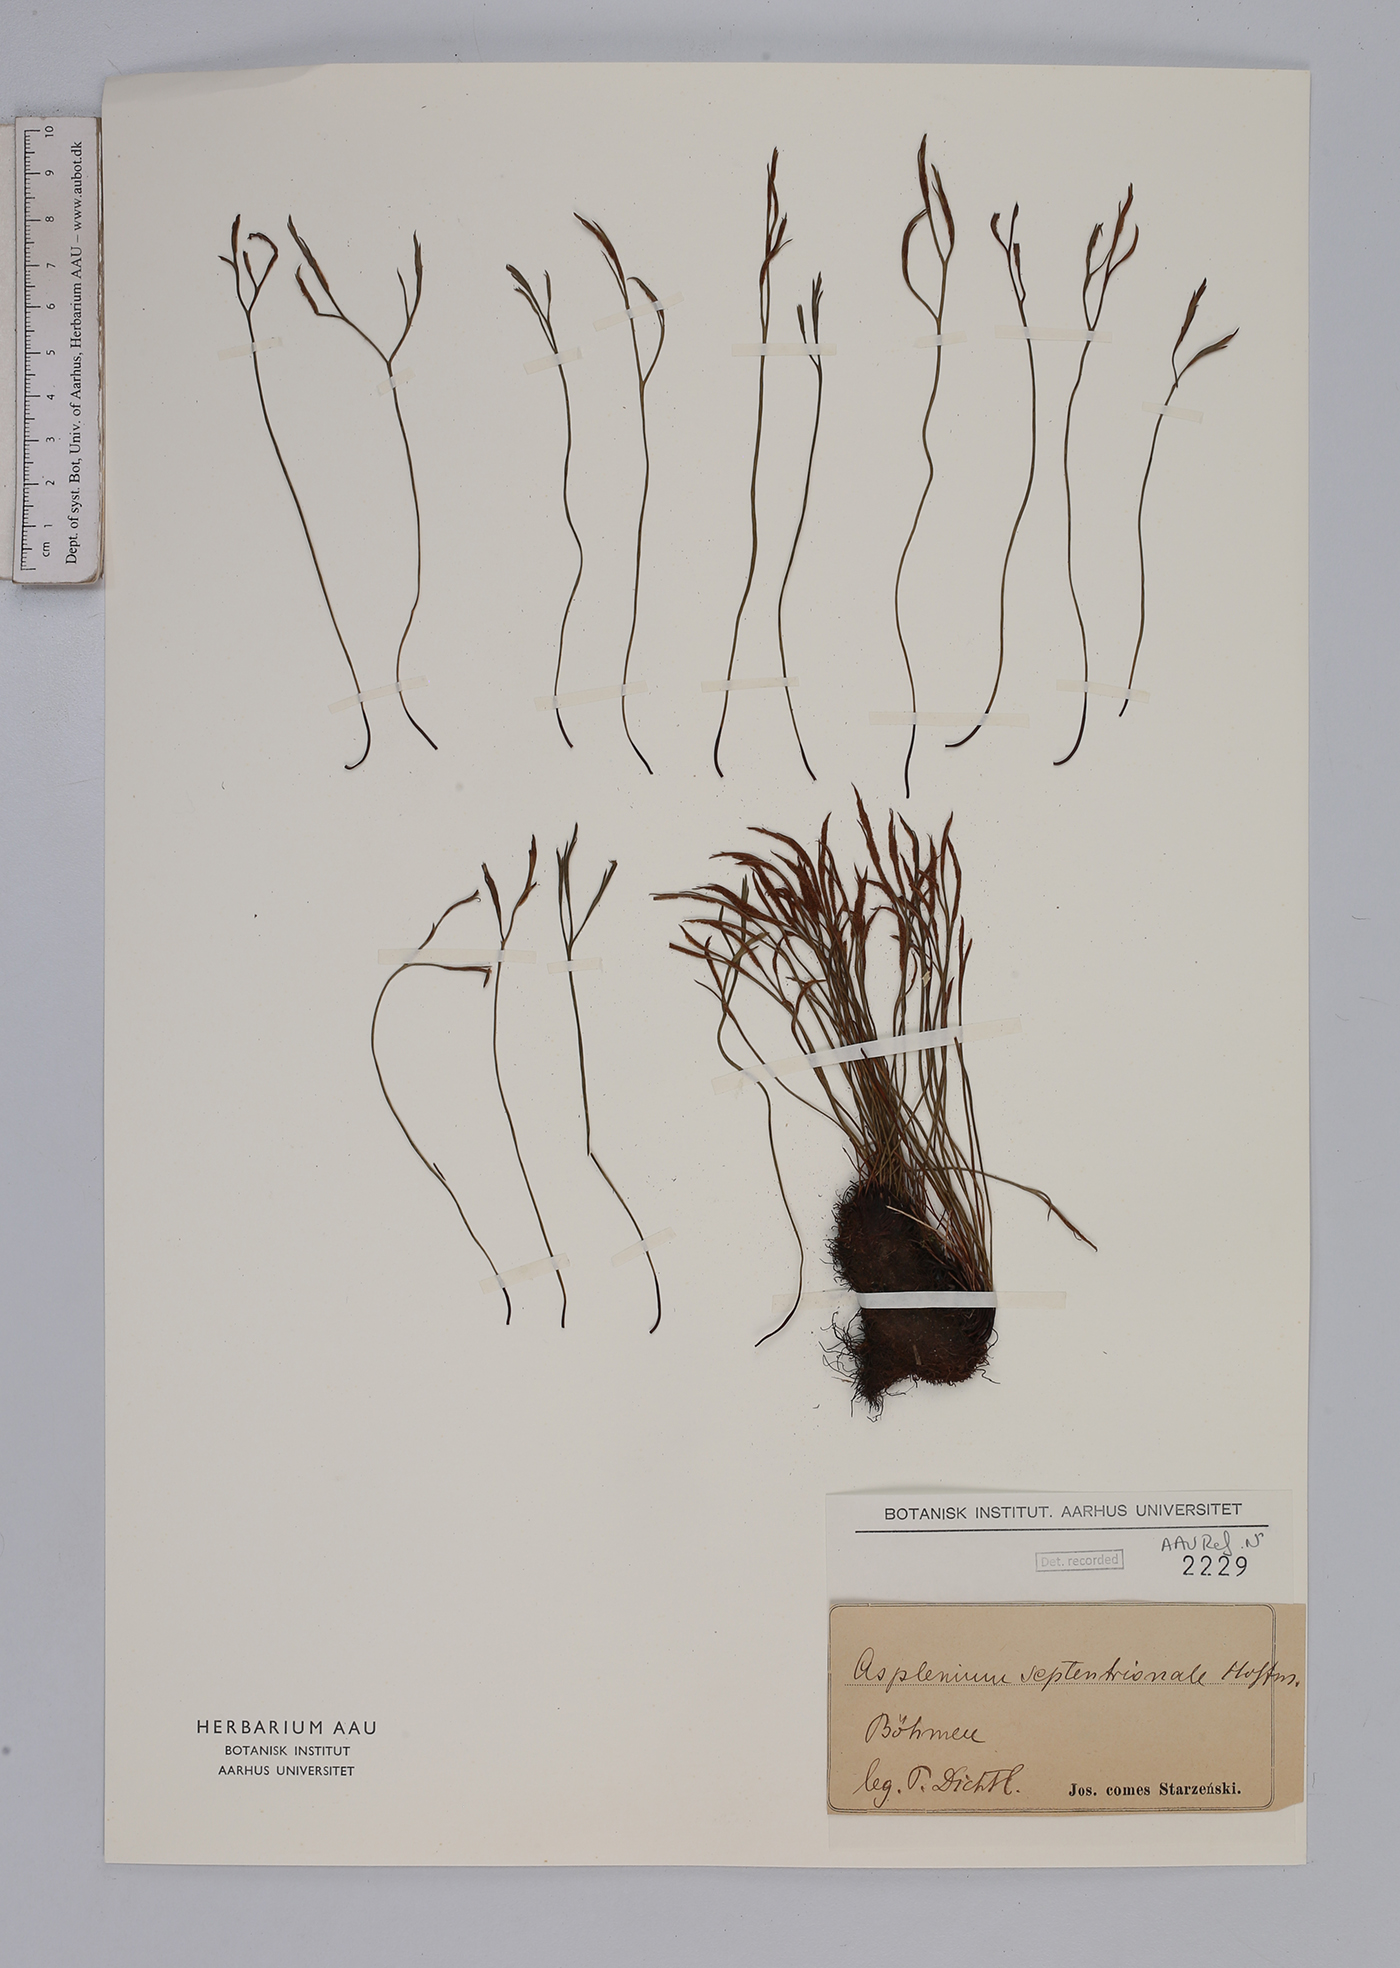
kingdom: Plantae
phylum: Tracheophyta
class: Polypodiopsida
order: Polypodiales
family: Aspleniaceae
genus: Asplenium
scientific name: Asplenium septentrionale
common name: Forked spleenwort
